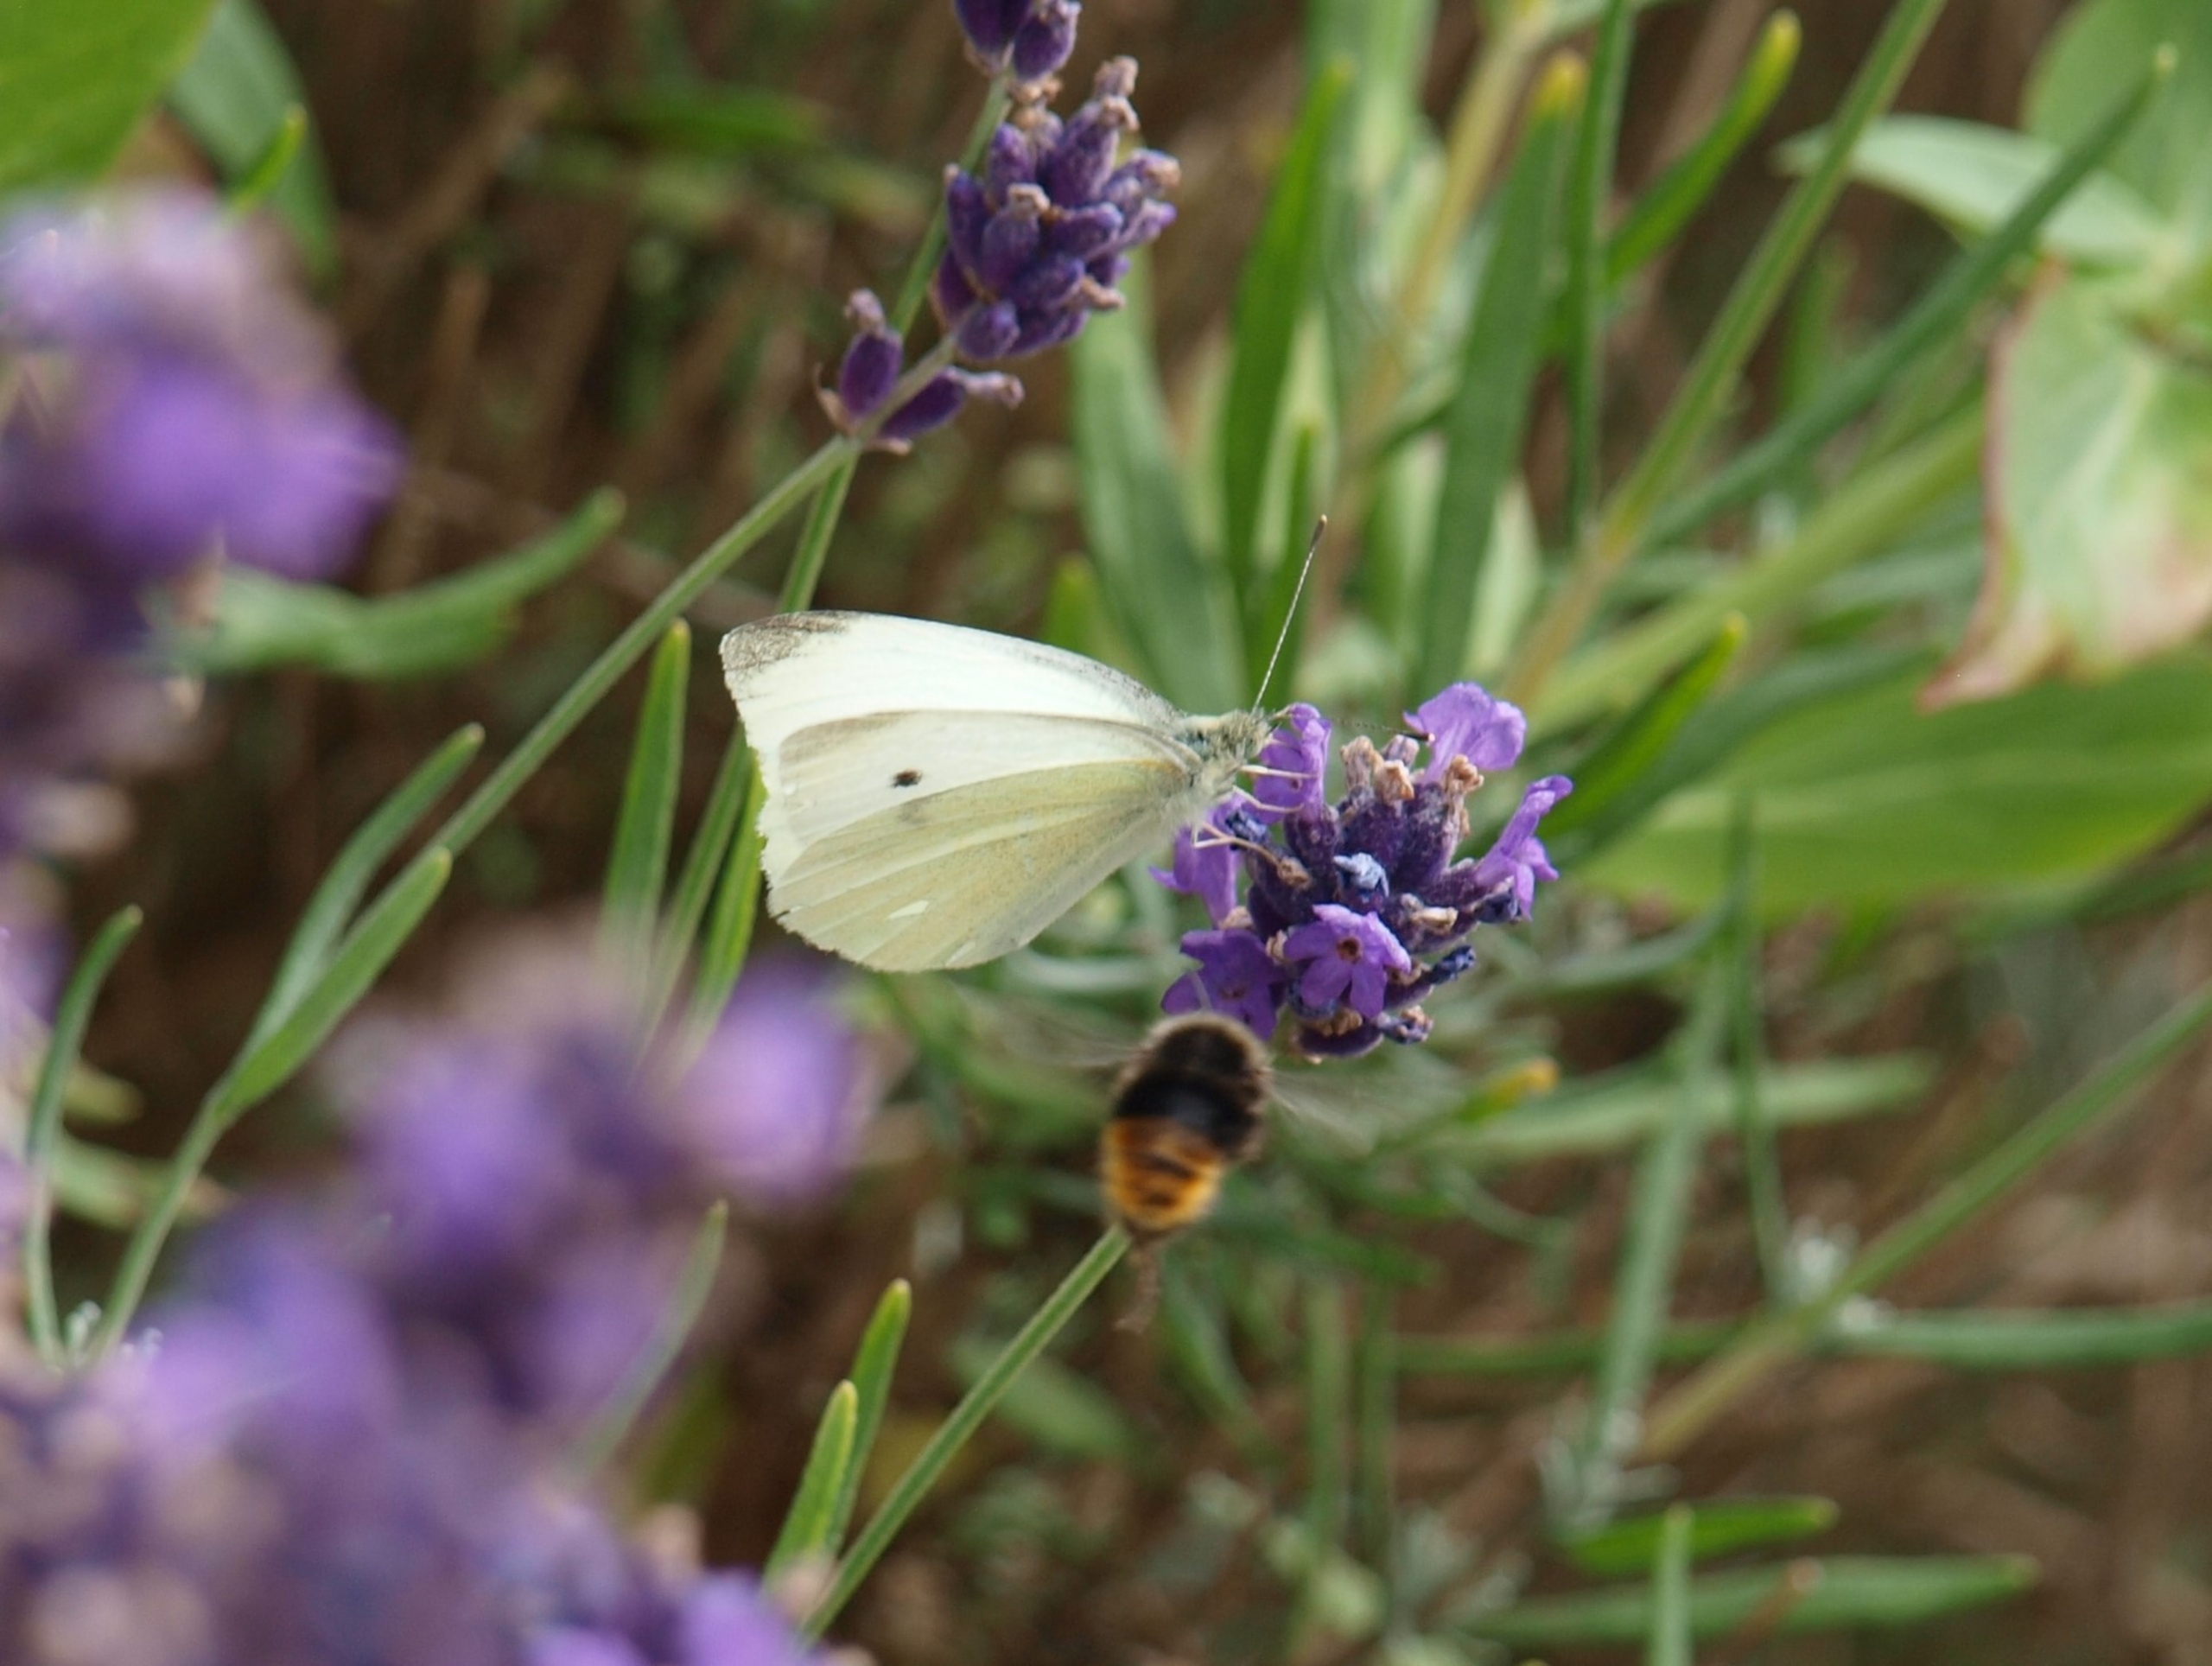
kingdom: Animalia
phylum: Arthropoda
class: Insecta
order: Lepidoptera
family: Pieridae
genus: Pieris
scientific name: Pieris rapae
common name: Lille kålsommerfugl
